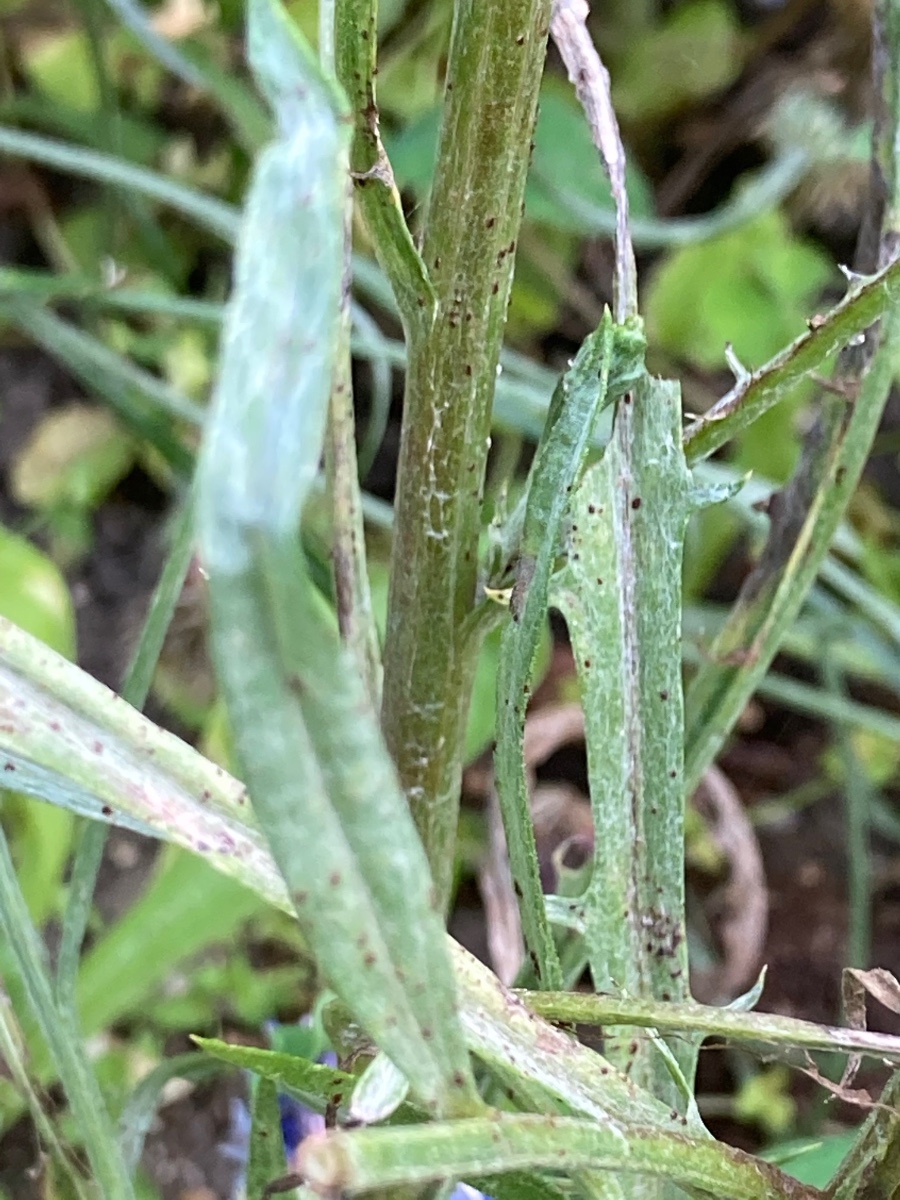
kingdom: Fungi
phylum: Basidiomycota
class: Pucciniomycetes
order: Pucciniales
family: Pucciniaceae
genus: Puccinia
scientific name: Puccinia cyani
